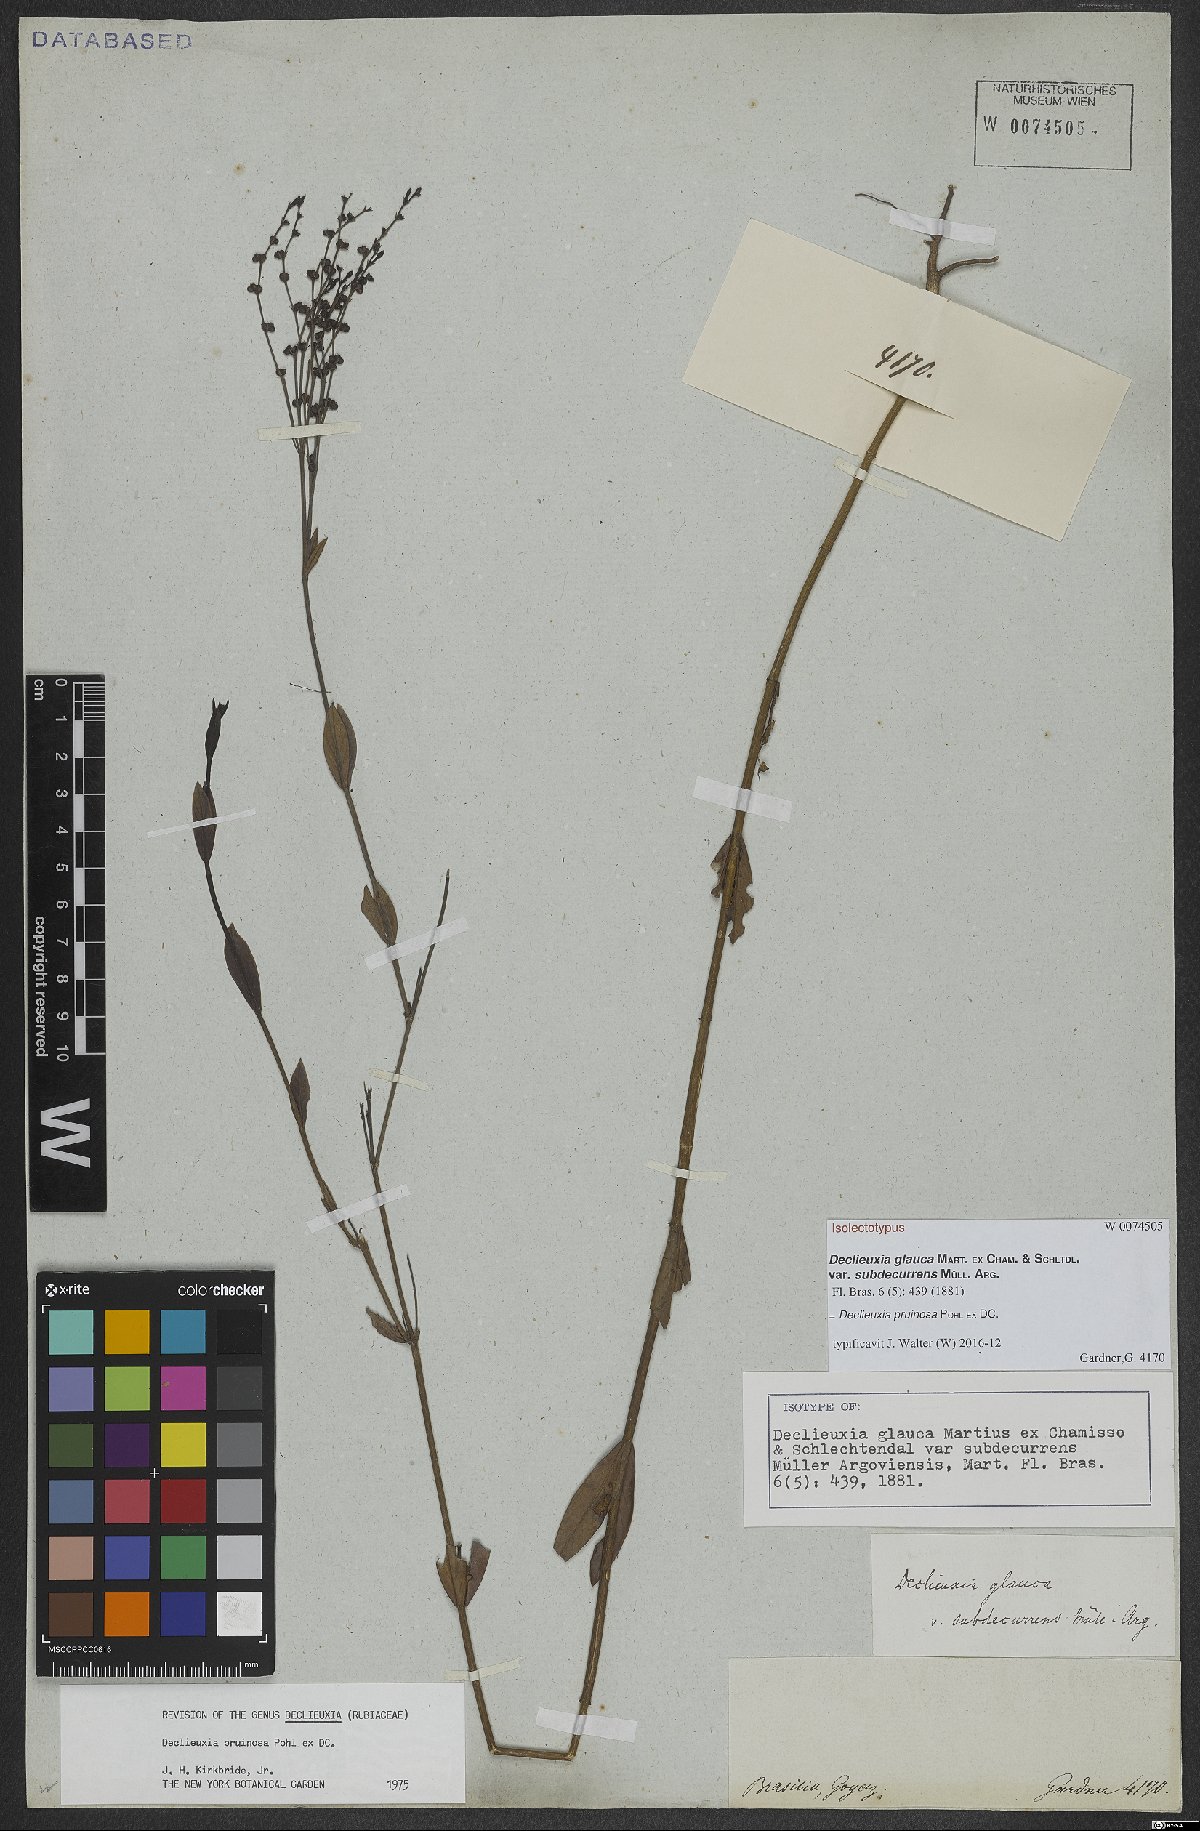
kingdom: Plantae
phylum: Tracheophyta
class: Magnoliopsida
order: Gentianales
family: Rubiaceae
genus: Declieuxia
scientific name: Declieuxia pruinosa
